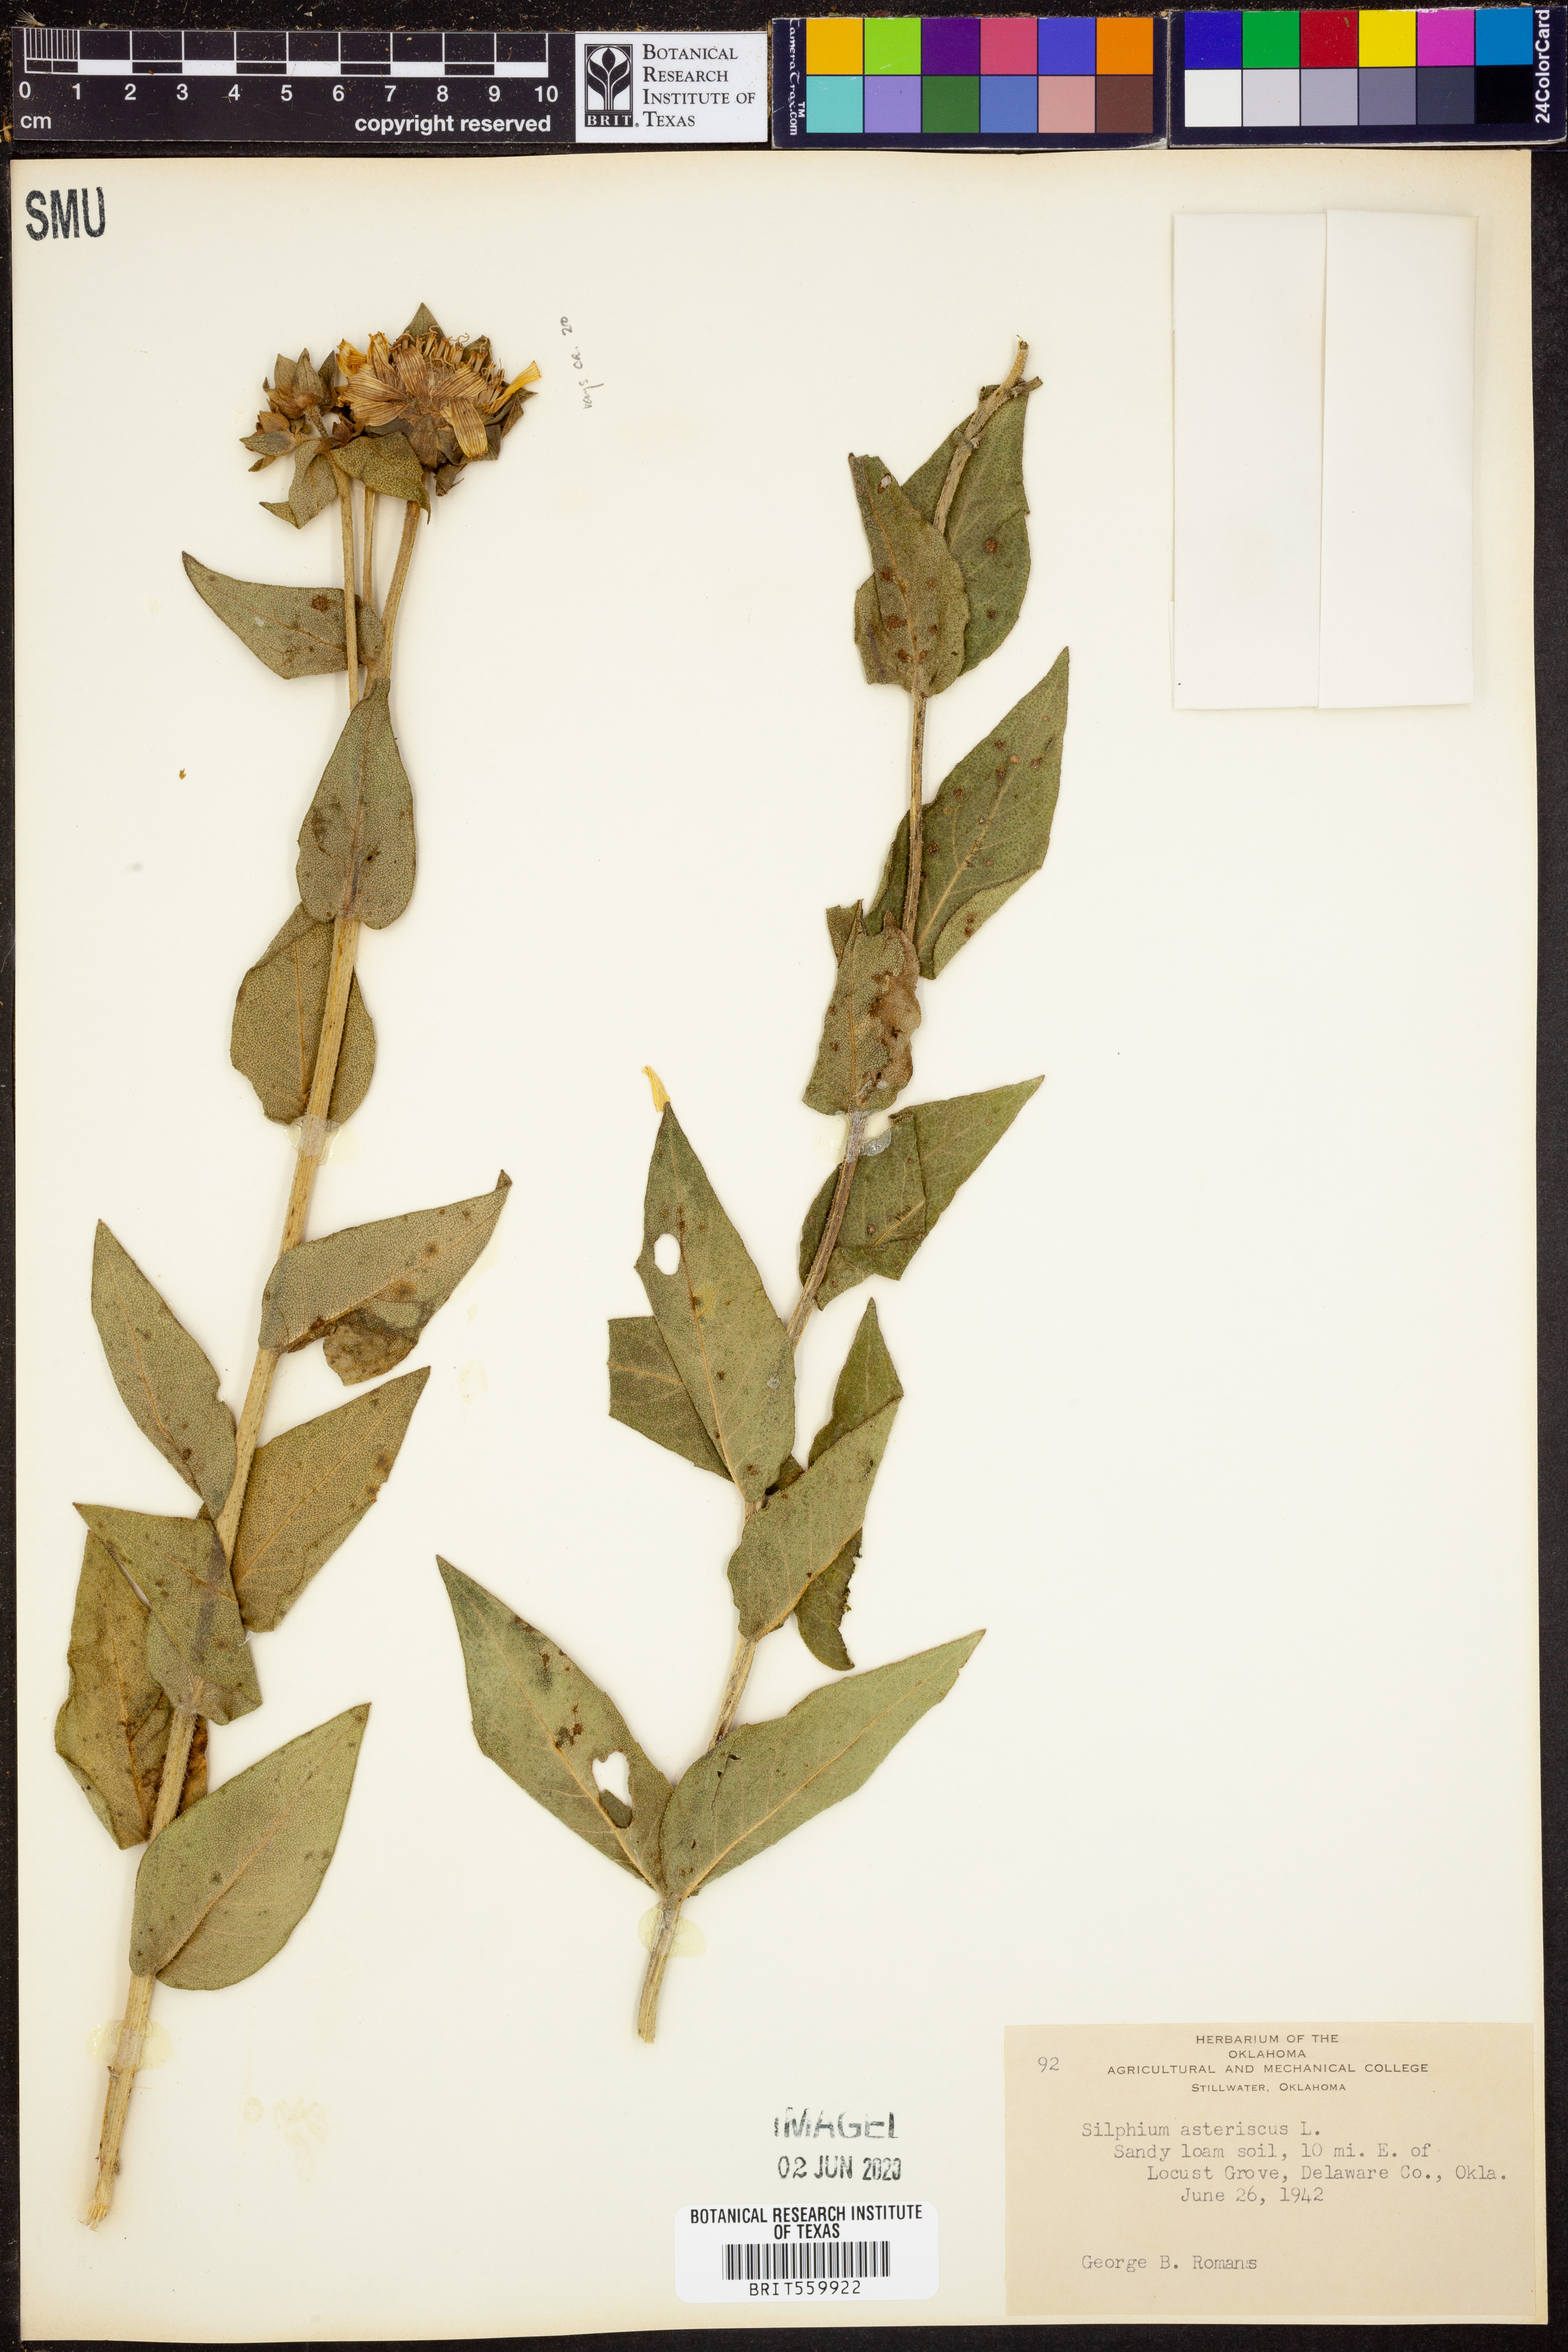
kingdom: Plantae
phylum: Tracheophyta
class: Magnoliopsida
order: Asterales
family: Asteraceae
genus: Silphium
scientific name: Silphium asteriscus
